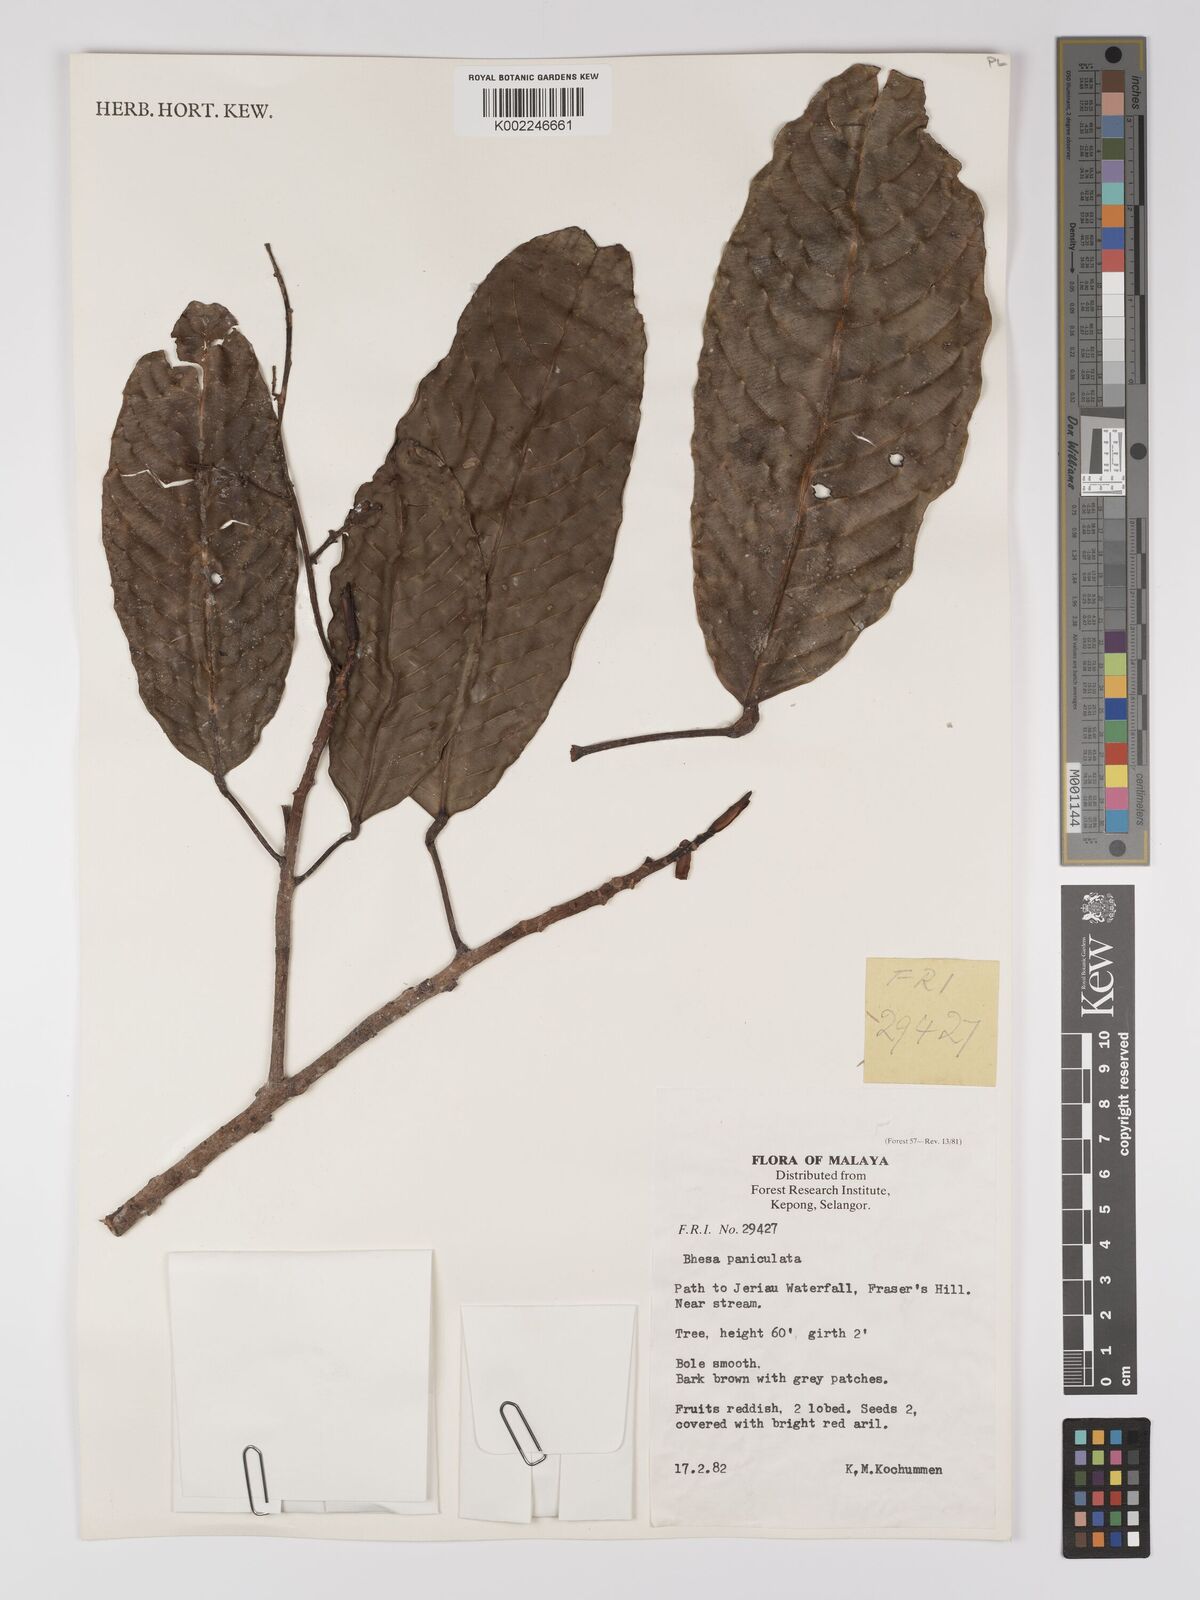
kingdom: Plantae
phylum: Tracheophyta
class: Magnoliopsida
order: Malpighiales
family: Centroplacaceae
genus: Bhesa
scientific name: Bhesa paniculata
